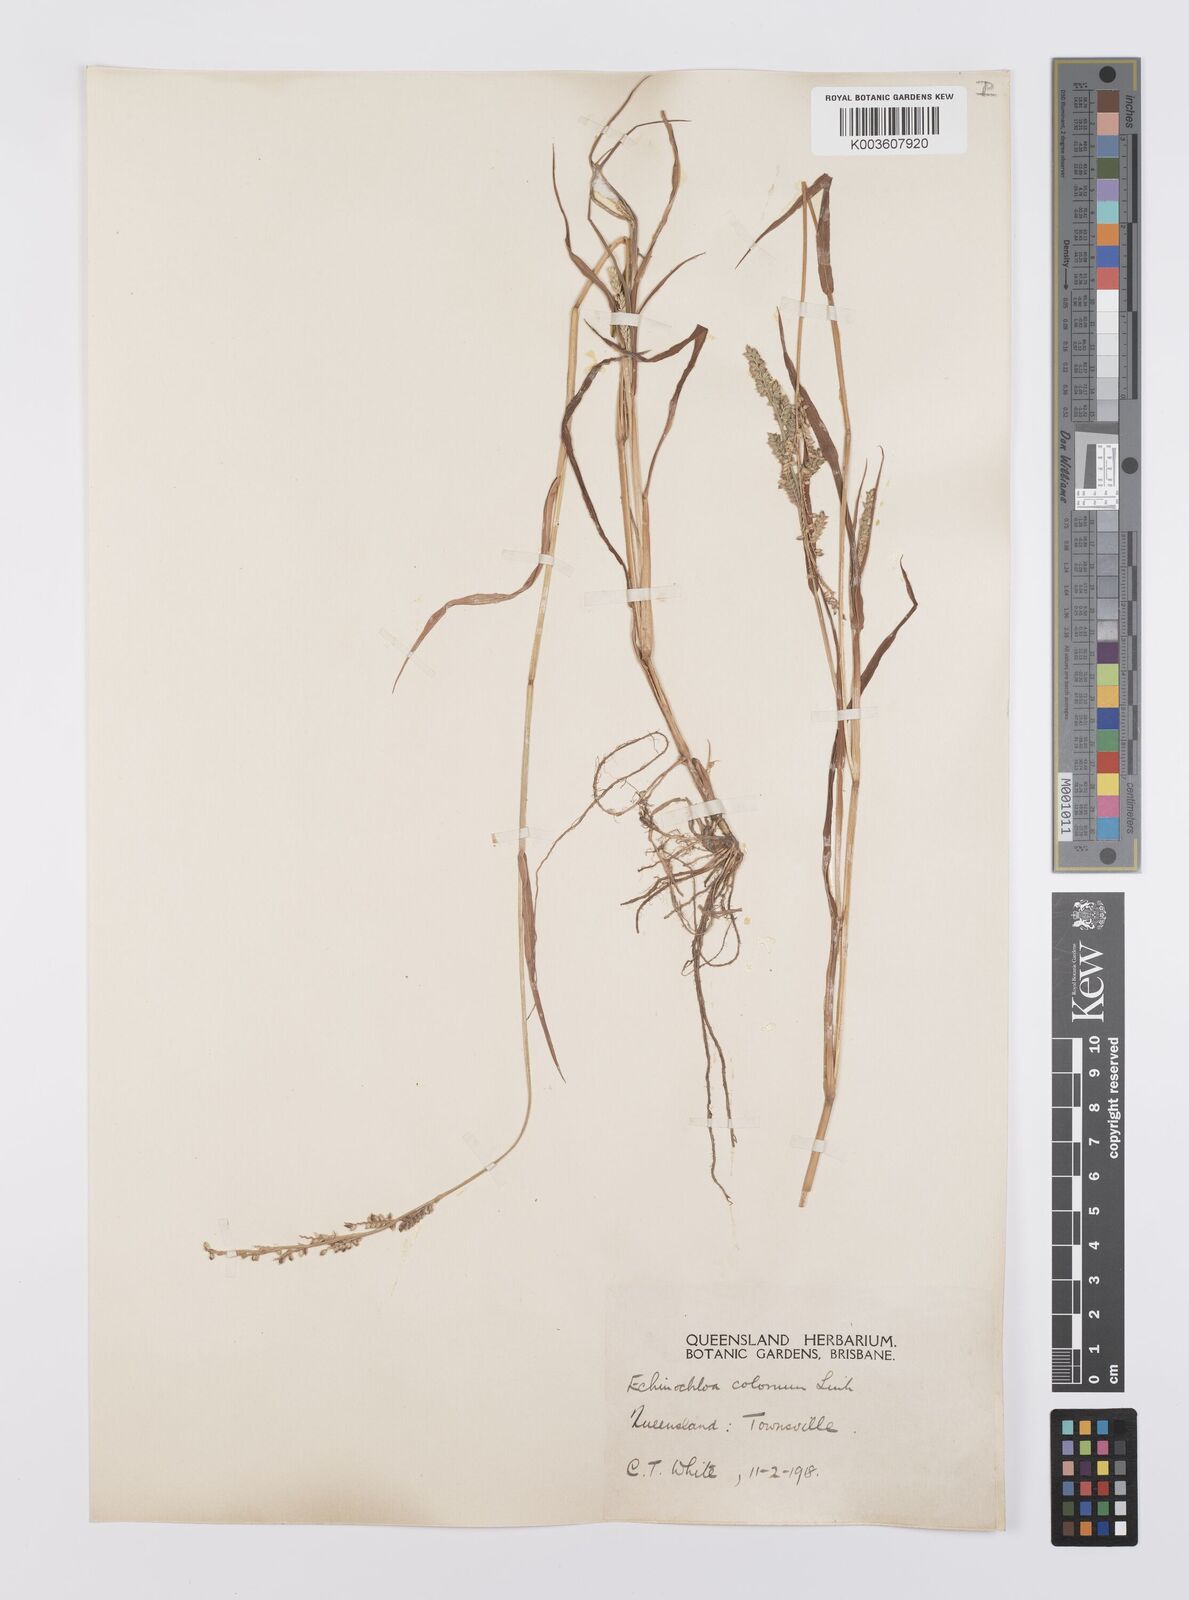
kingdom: Plantae
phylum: Tracheophyta
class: Liliopsida
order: Poales
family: Poaceae
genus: Echinochloa
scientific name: Echinochloa colonum
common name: Jungle rice
